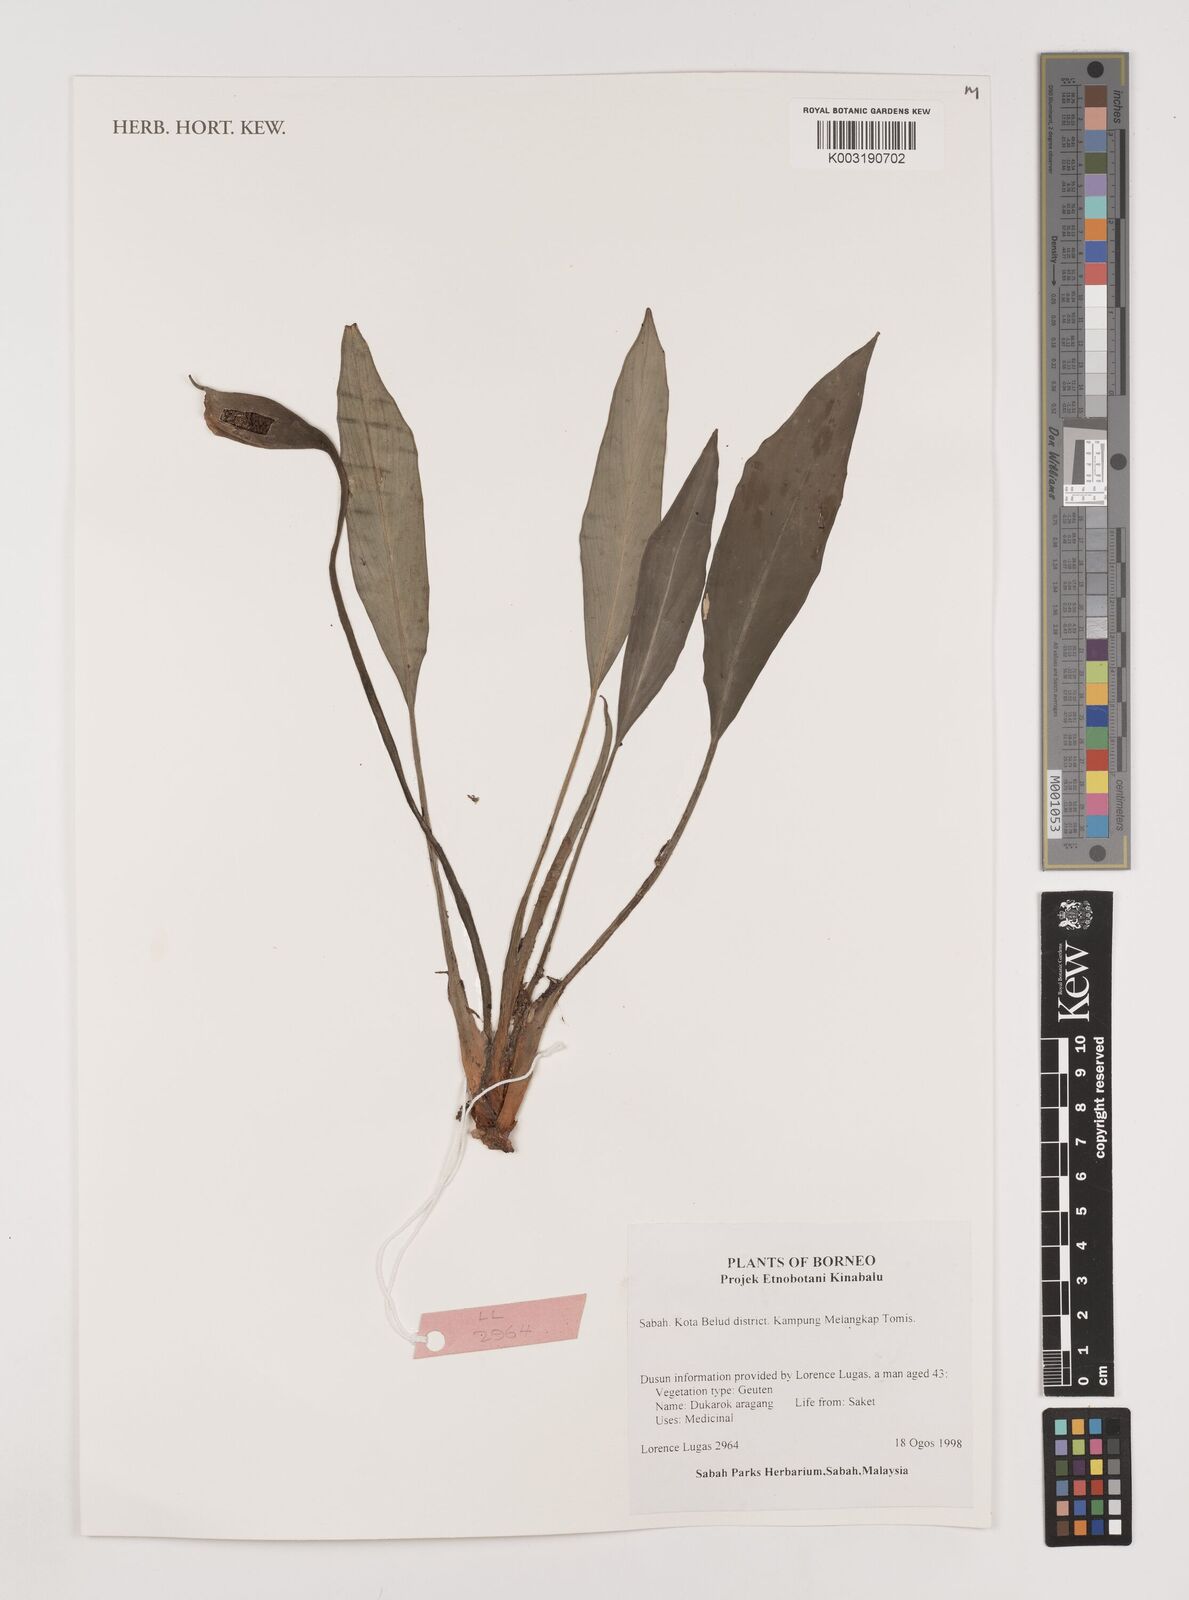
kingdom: Plantae
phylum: Tracheophyta
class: Liliopsida
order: Alismatales
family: Araceae
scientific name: Araceae
